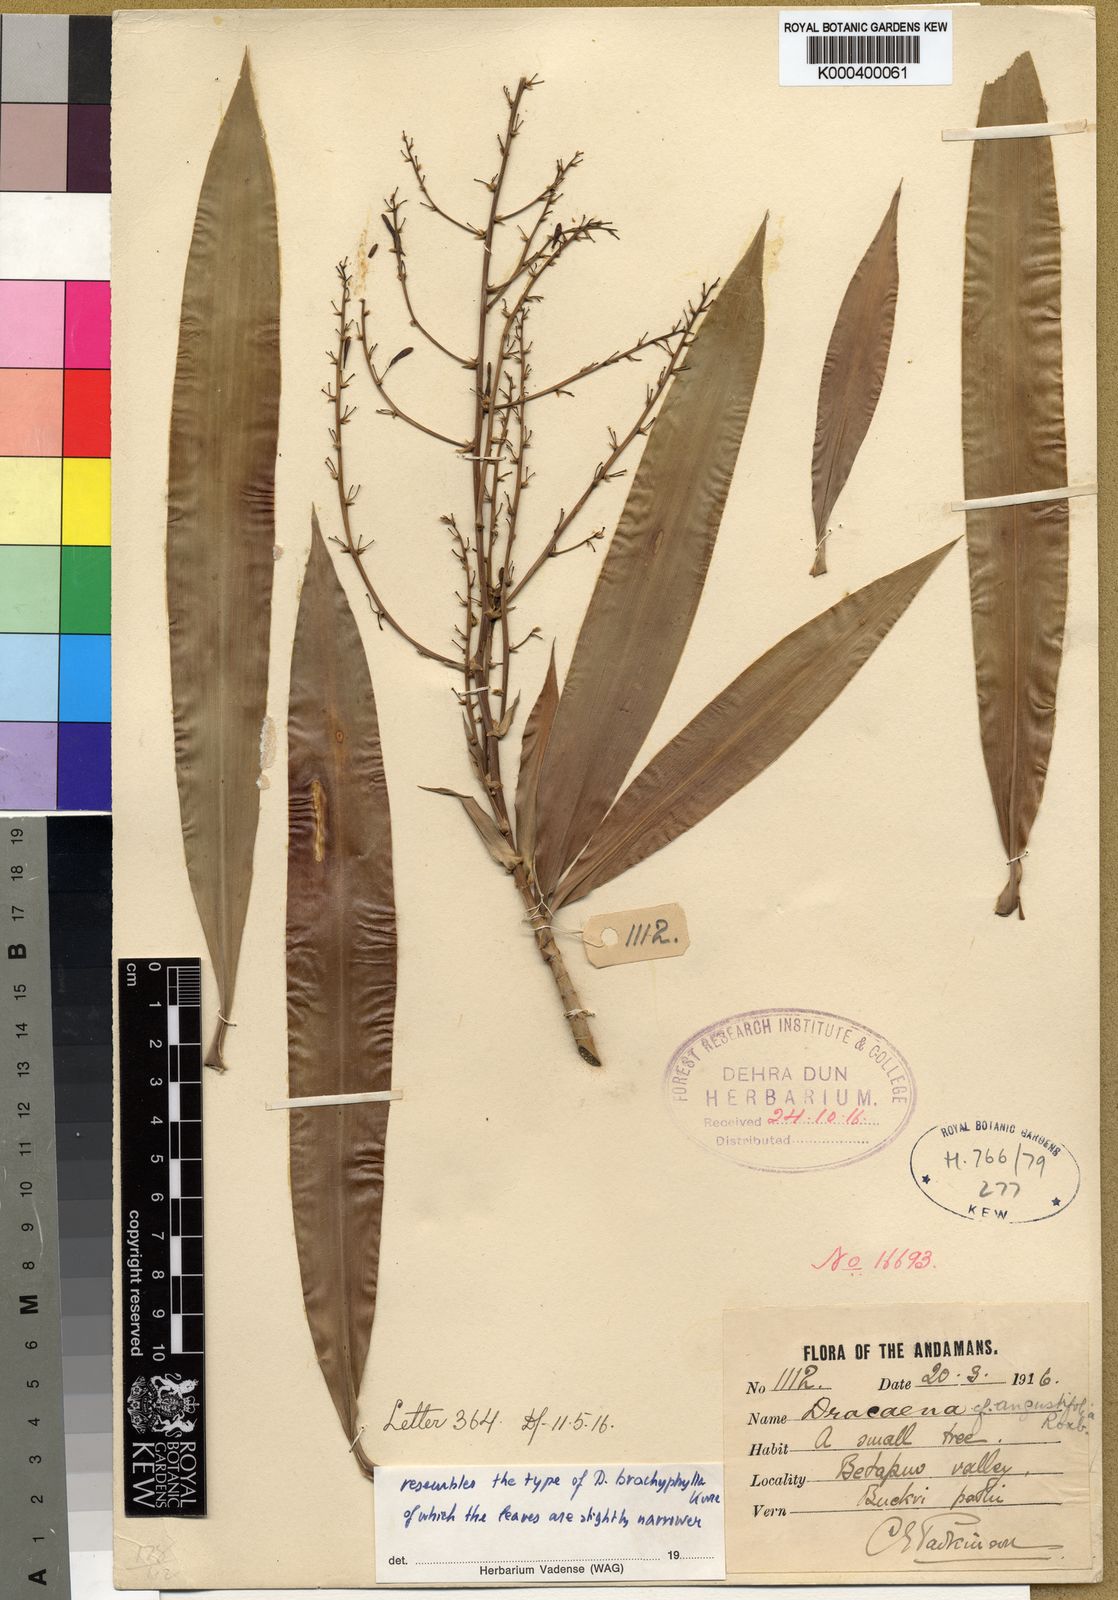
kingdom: Plantae
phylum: Tracheophyta
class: Liliopsida
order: Asparagales
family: Asparagaceae
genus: Dracaena
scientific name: Dracaena brachyphylla
